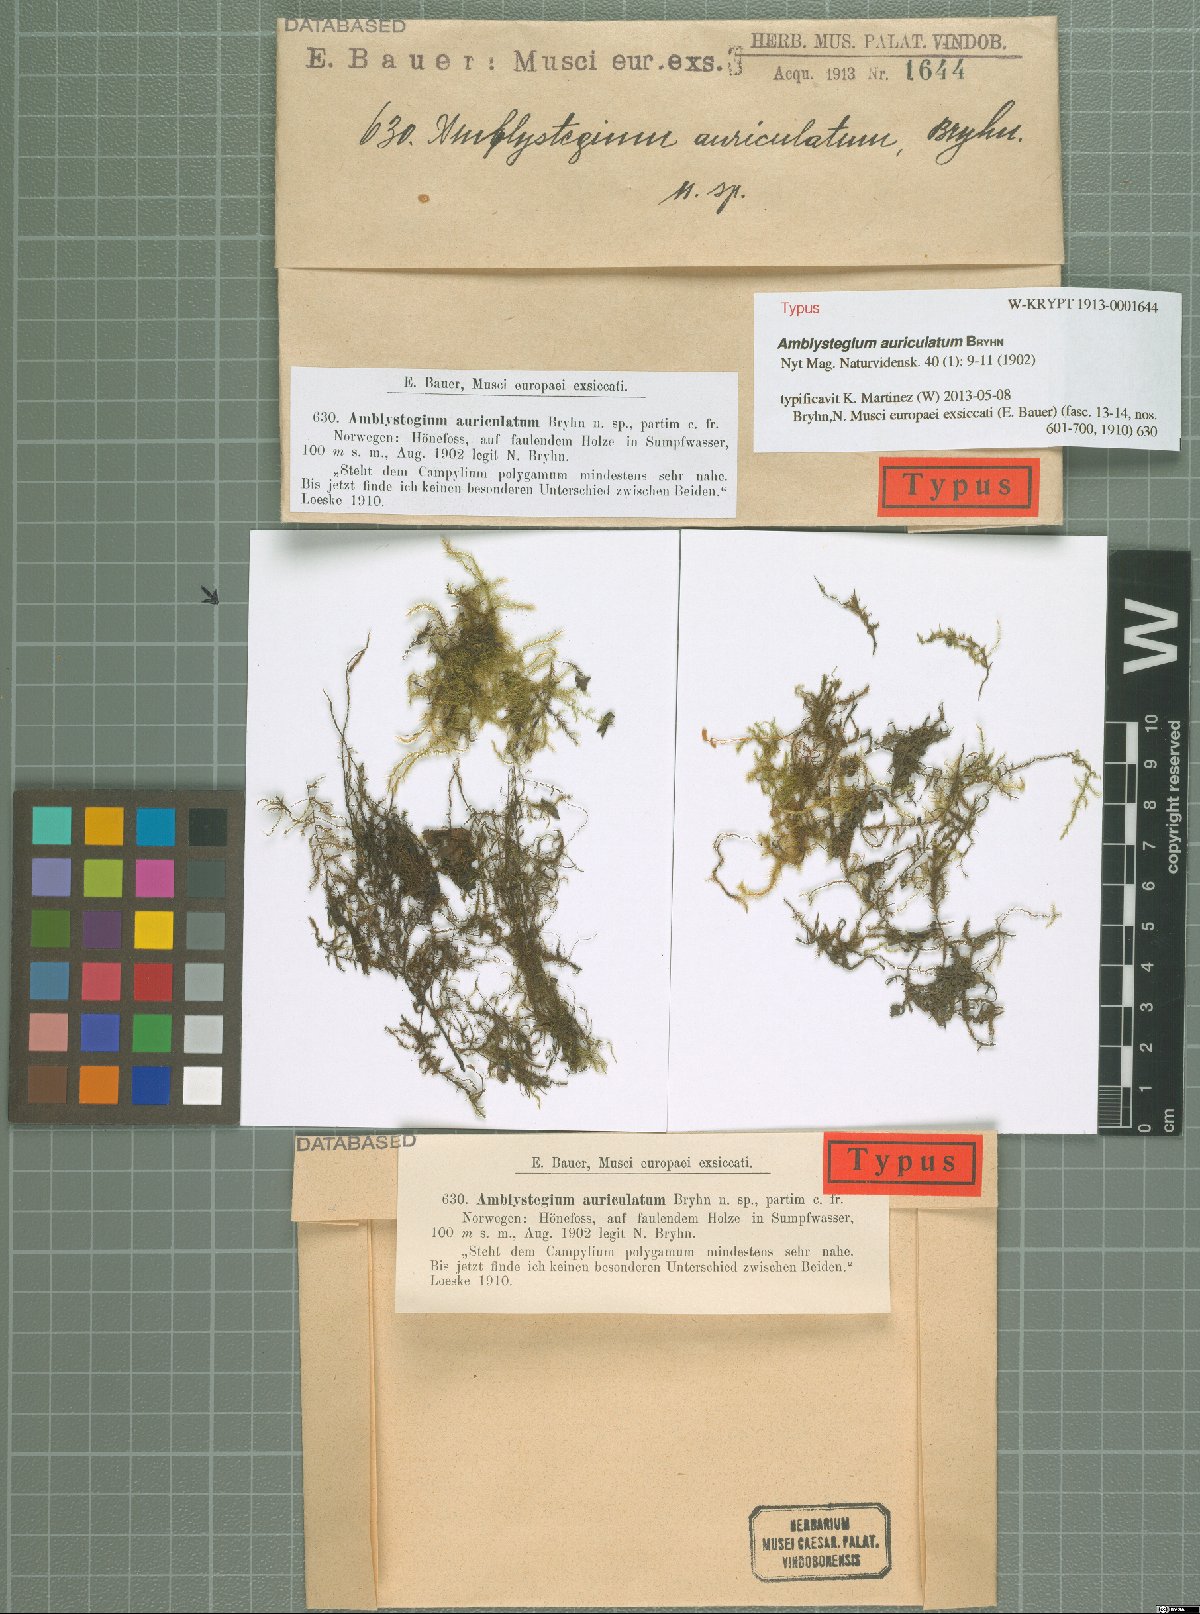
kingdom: Plantae
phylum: Bryophyta
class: Bryopsida
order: Hypnales
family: Amblystegiaceae
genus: Drepanocladus
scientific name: Drepanocladus polygamus
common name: Polygamous hook moss
